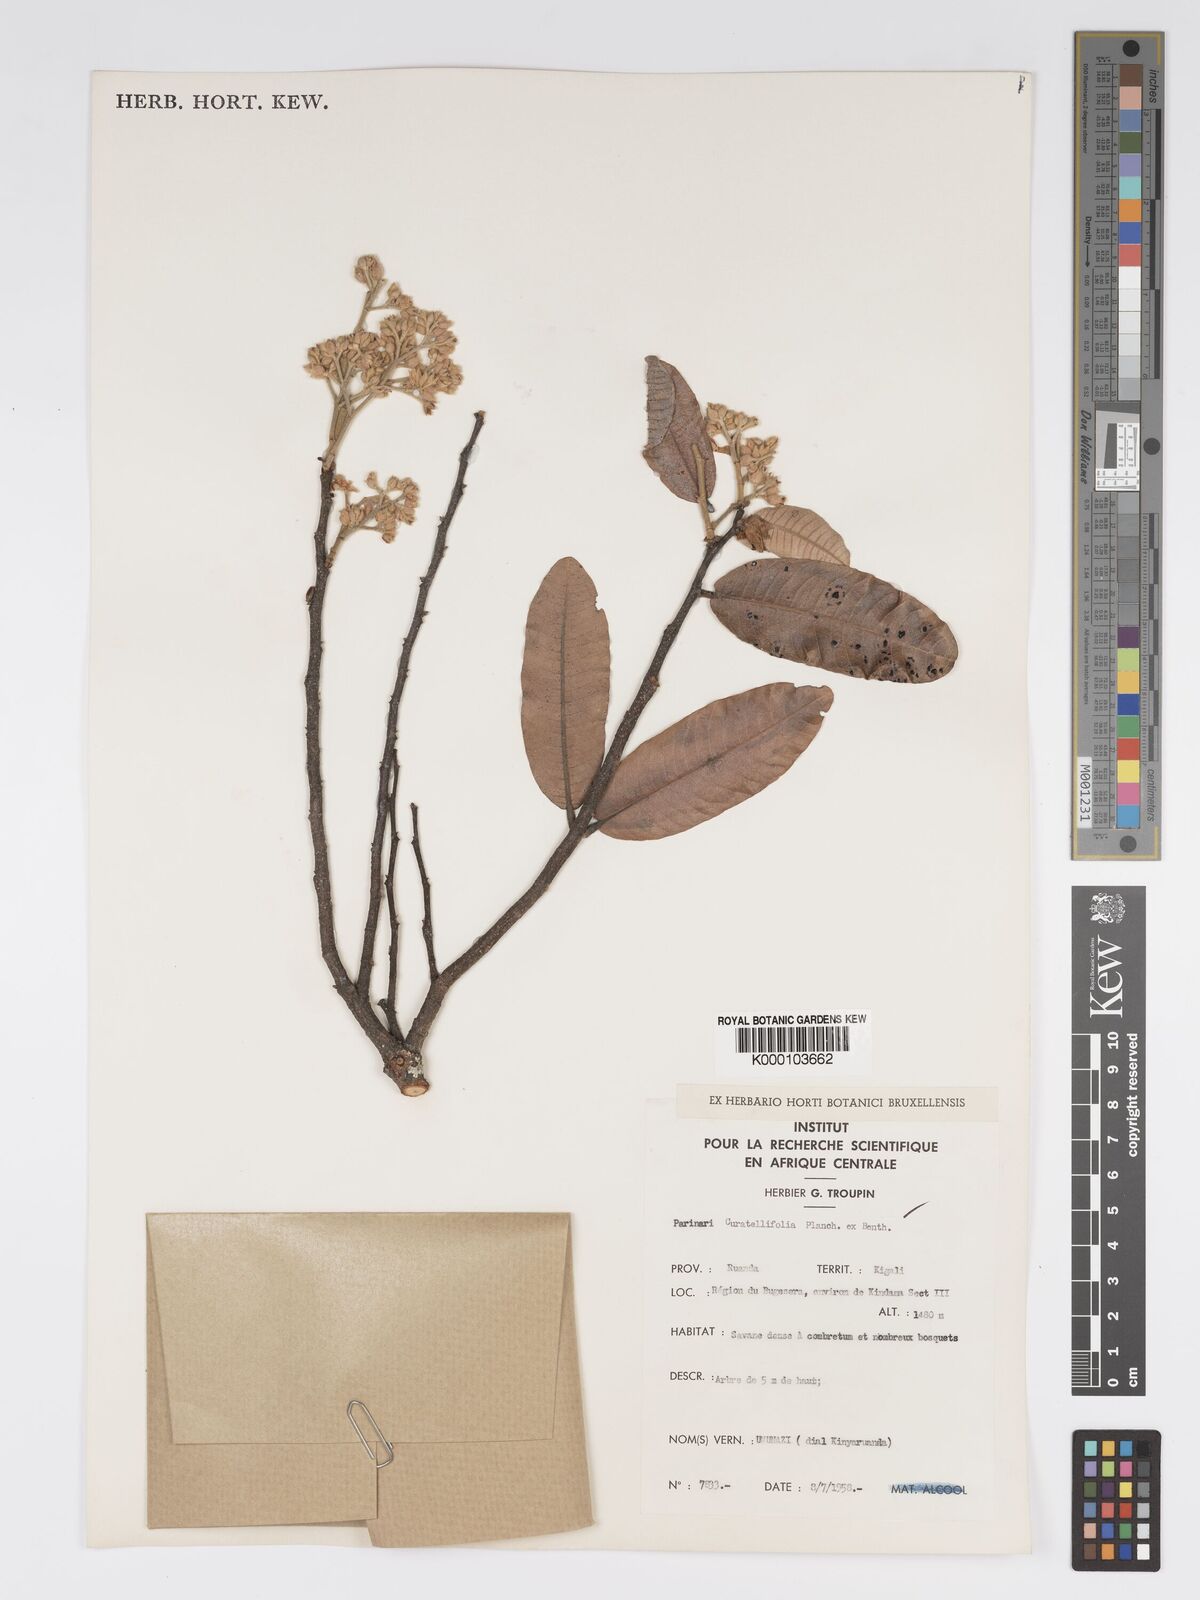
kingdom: Plantae
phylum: Tracheophyta
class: Magnoliopsida
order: Malpighiales
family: Chrysobalanaceae
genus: Parinari
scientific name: Parinari curatellifolia
